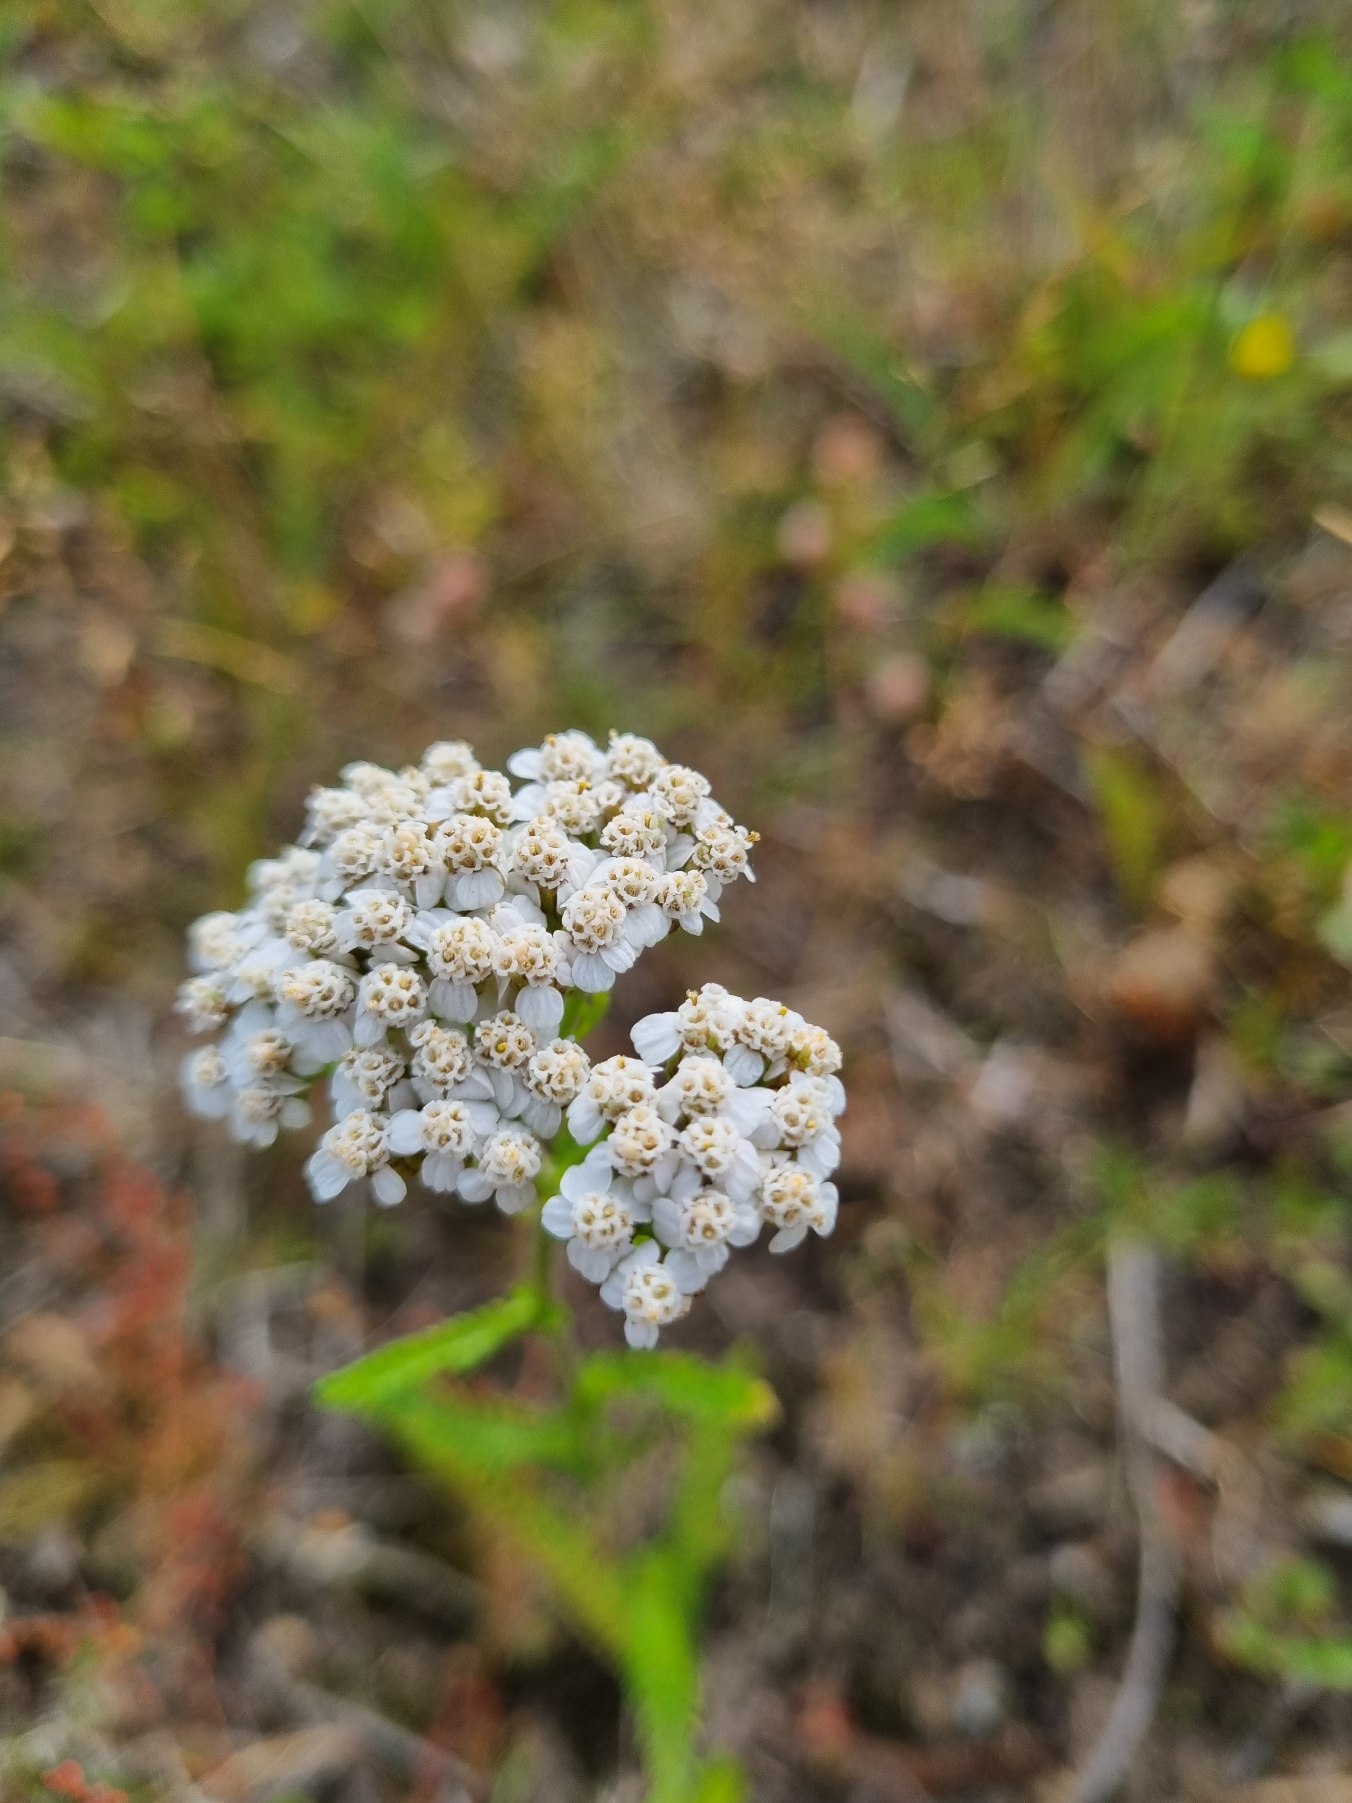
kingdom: Plantae
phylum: Tracheophyta
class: Magnoliopsida
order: Asterales
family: Asteraceae
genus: Achillea
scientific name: Achillea millefolium
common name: Almindelig røllike
